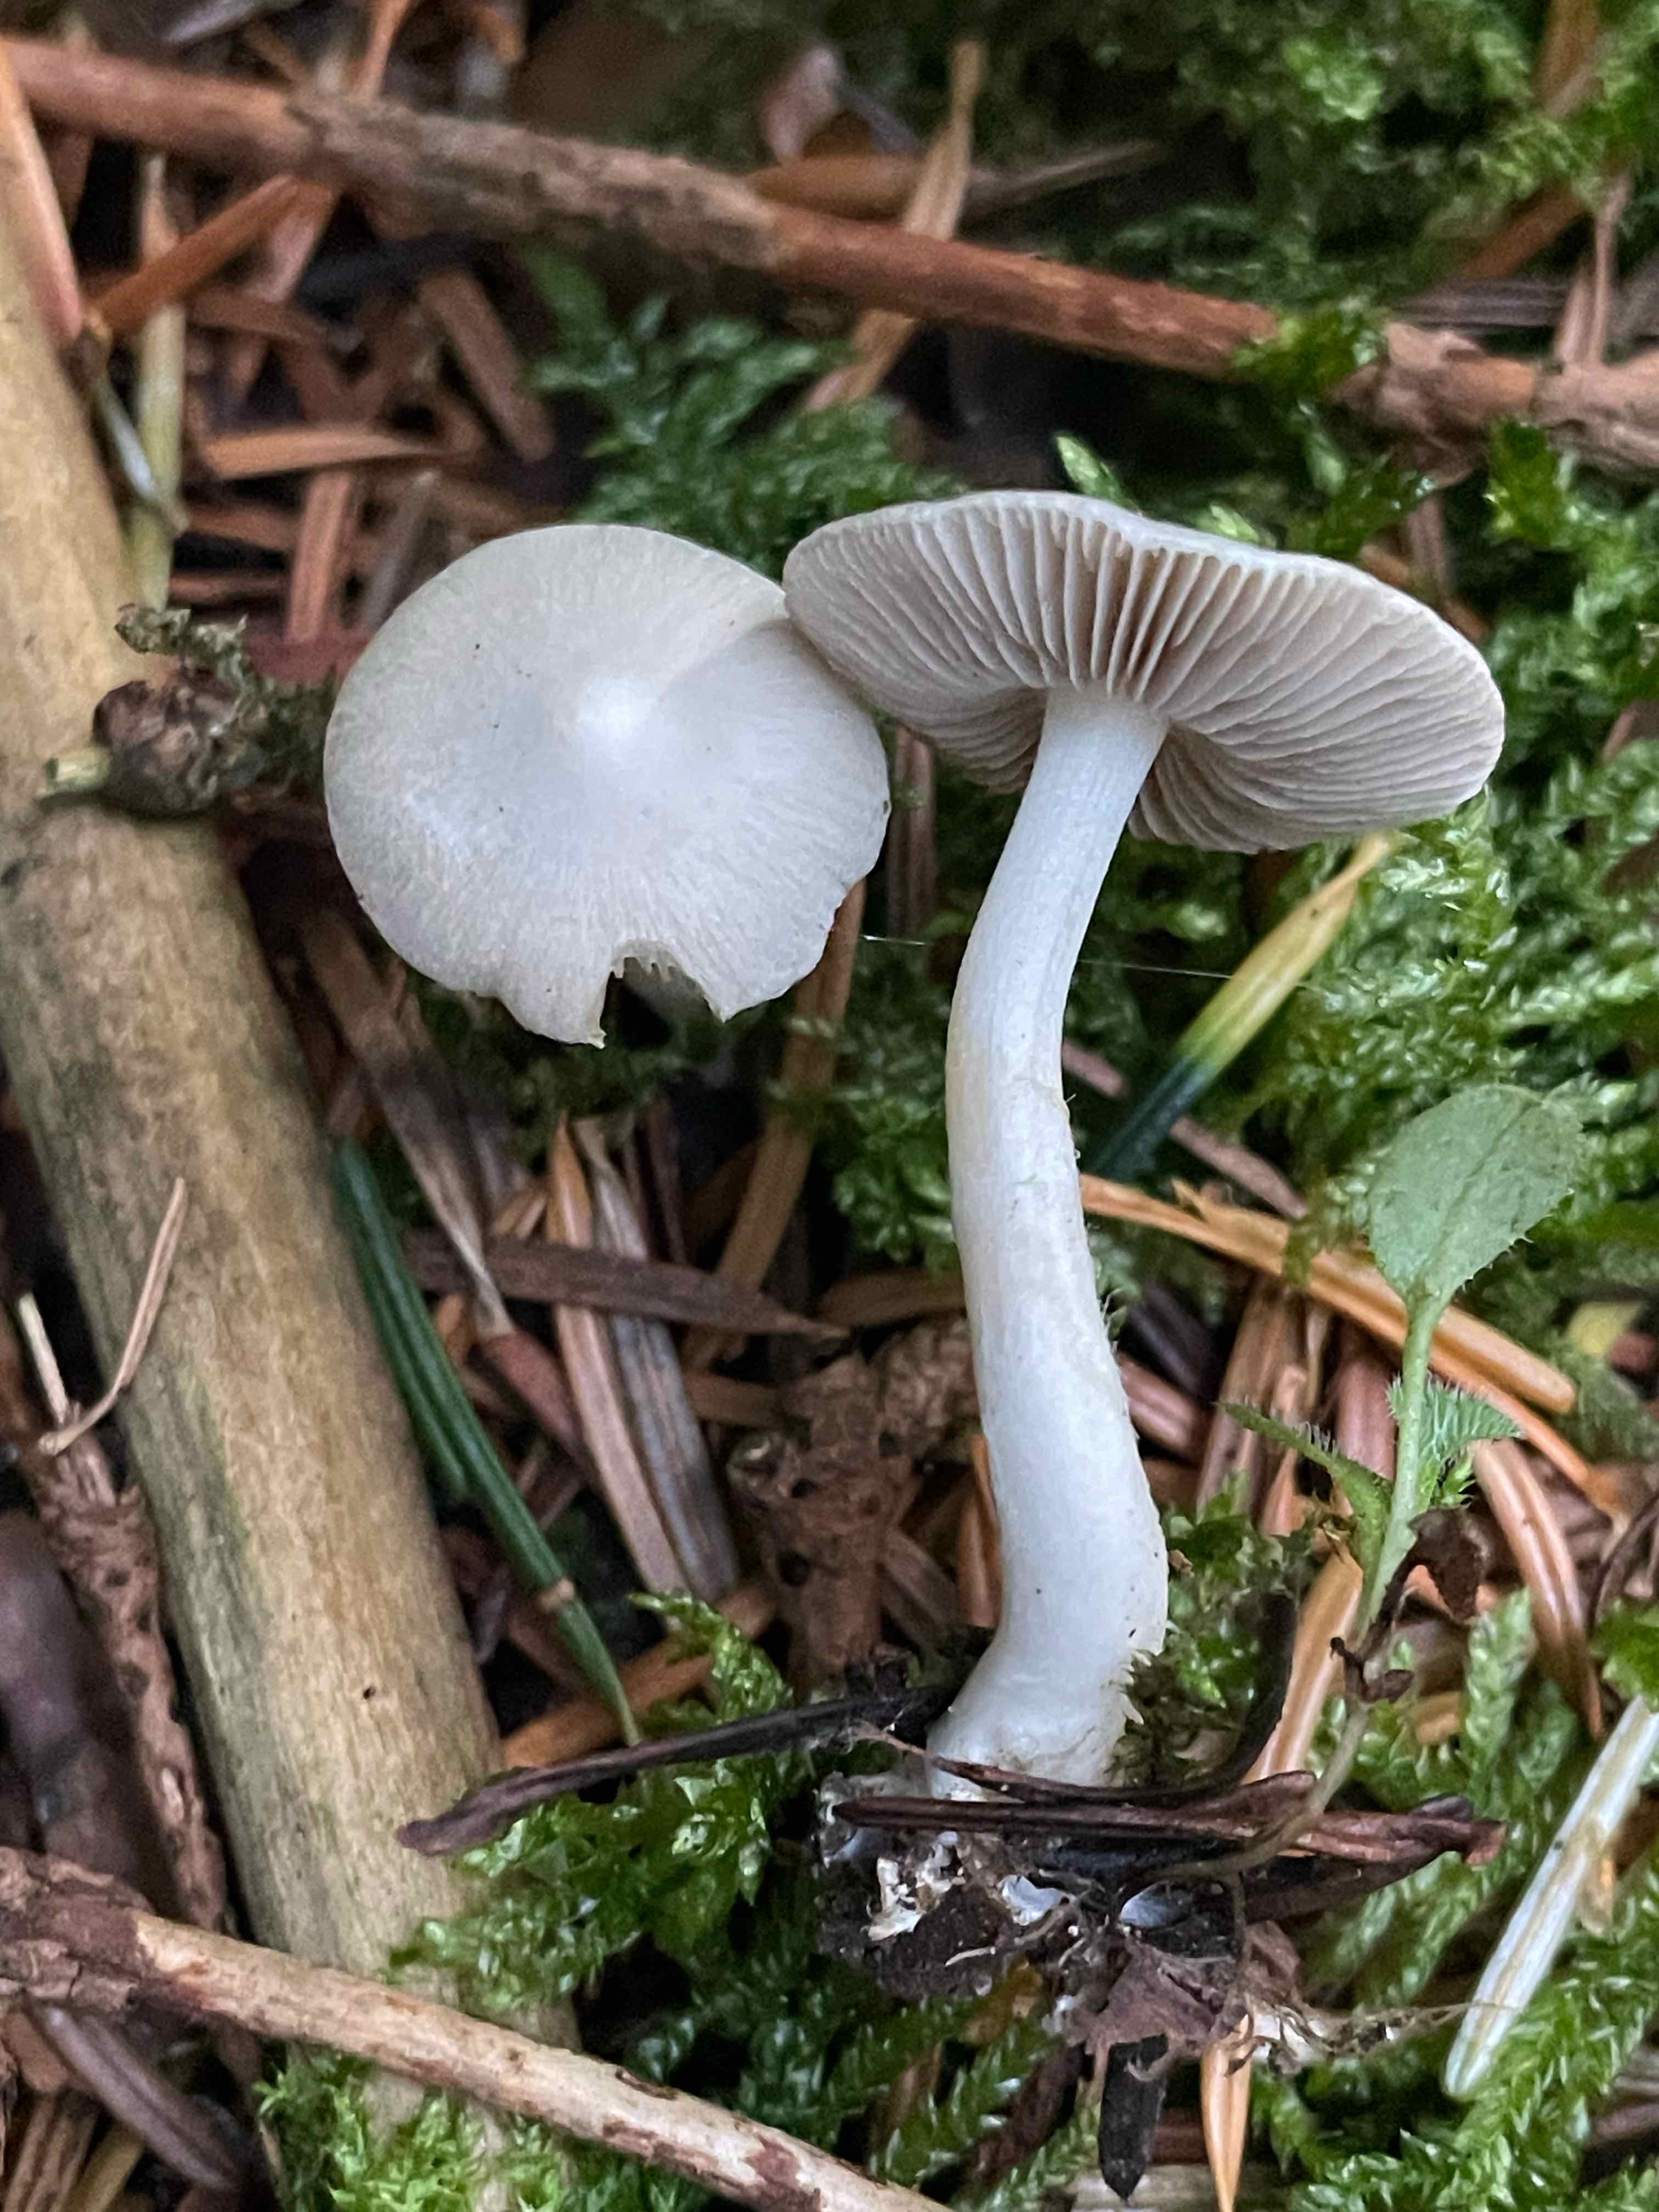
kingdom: Fungi
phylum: Basidiomycota
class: Agaricomycetes
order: Agaricales
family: Inocybaceae
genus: Inocybe
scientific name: Inocybe
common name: almindelig trævlhat
